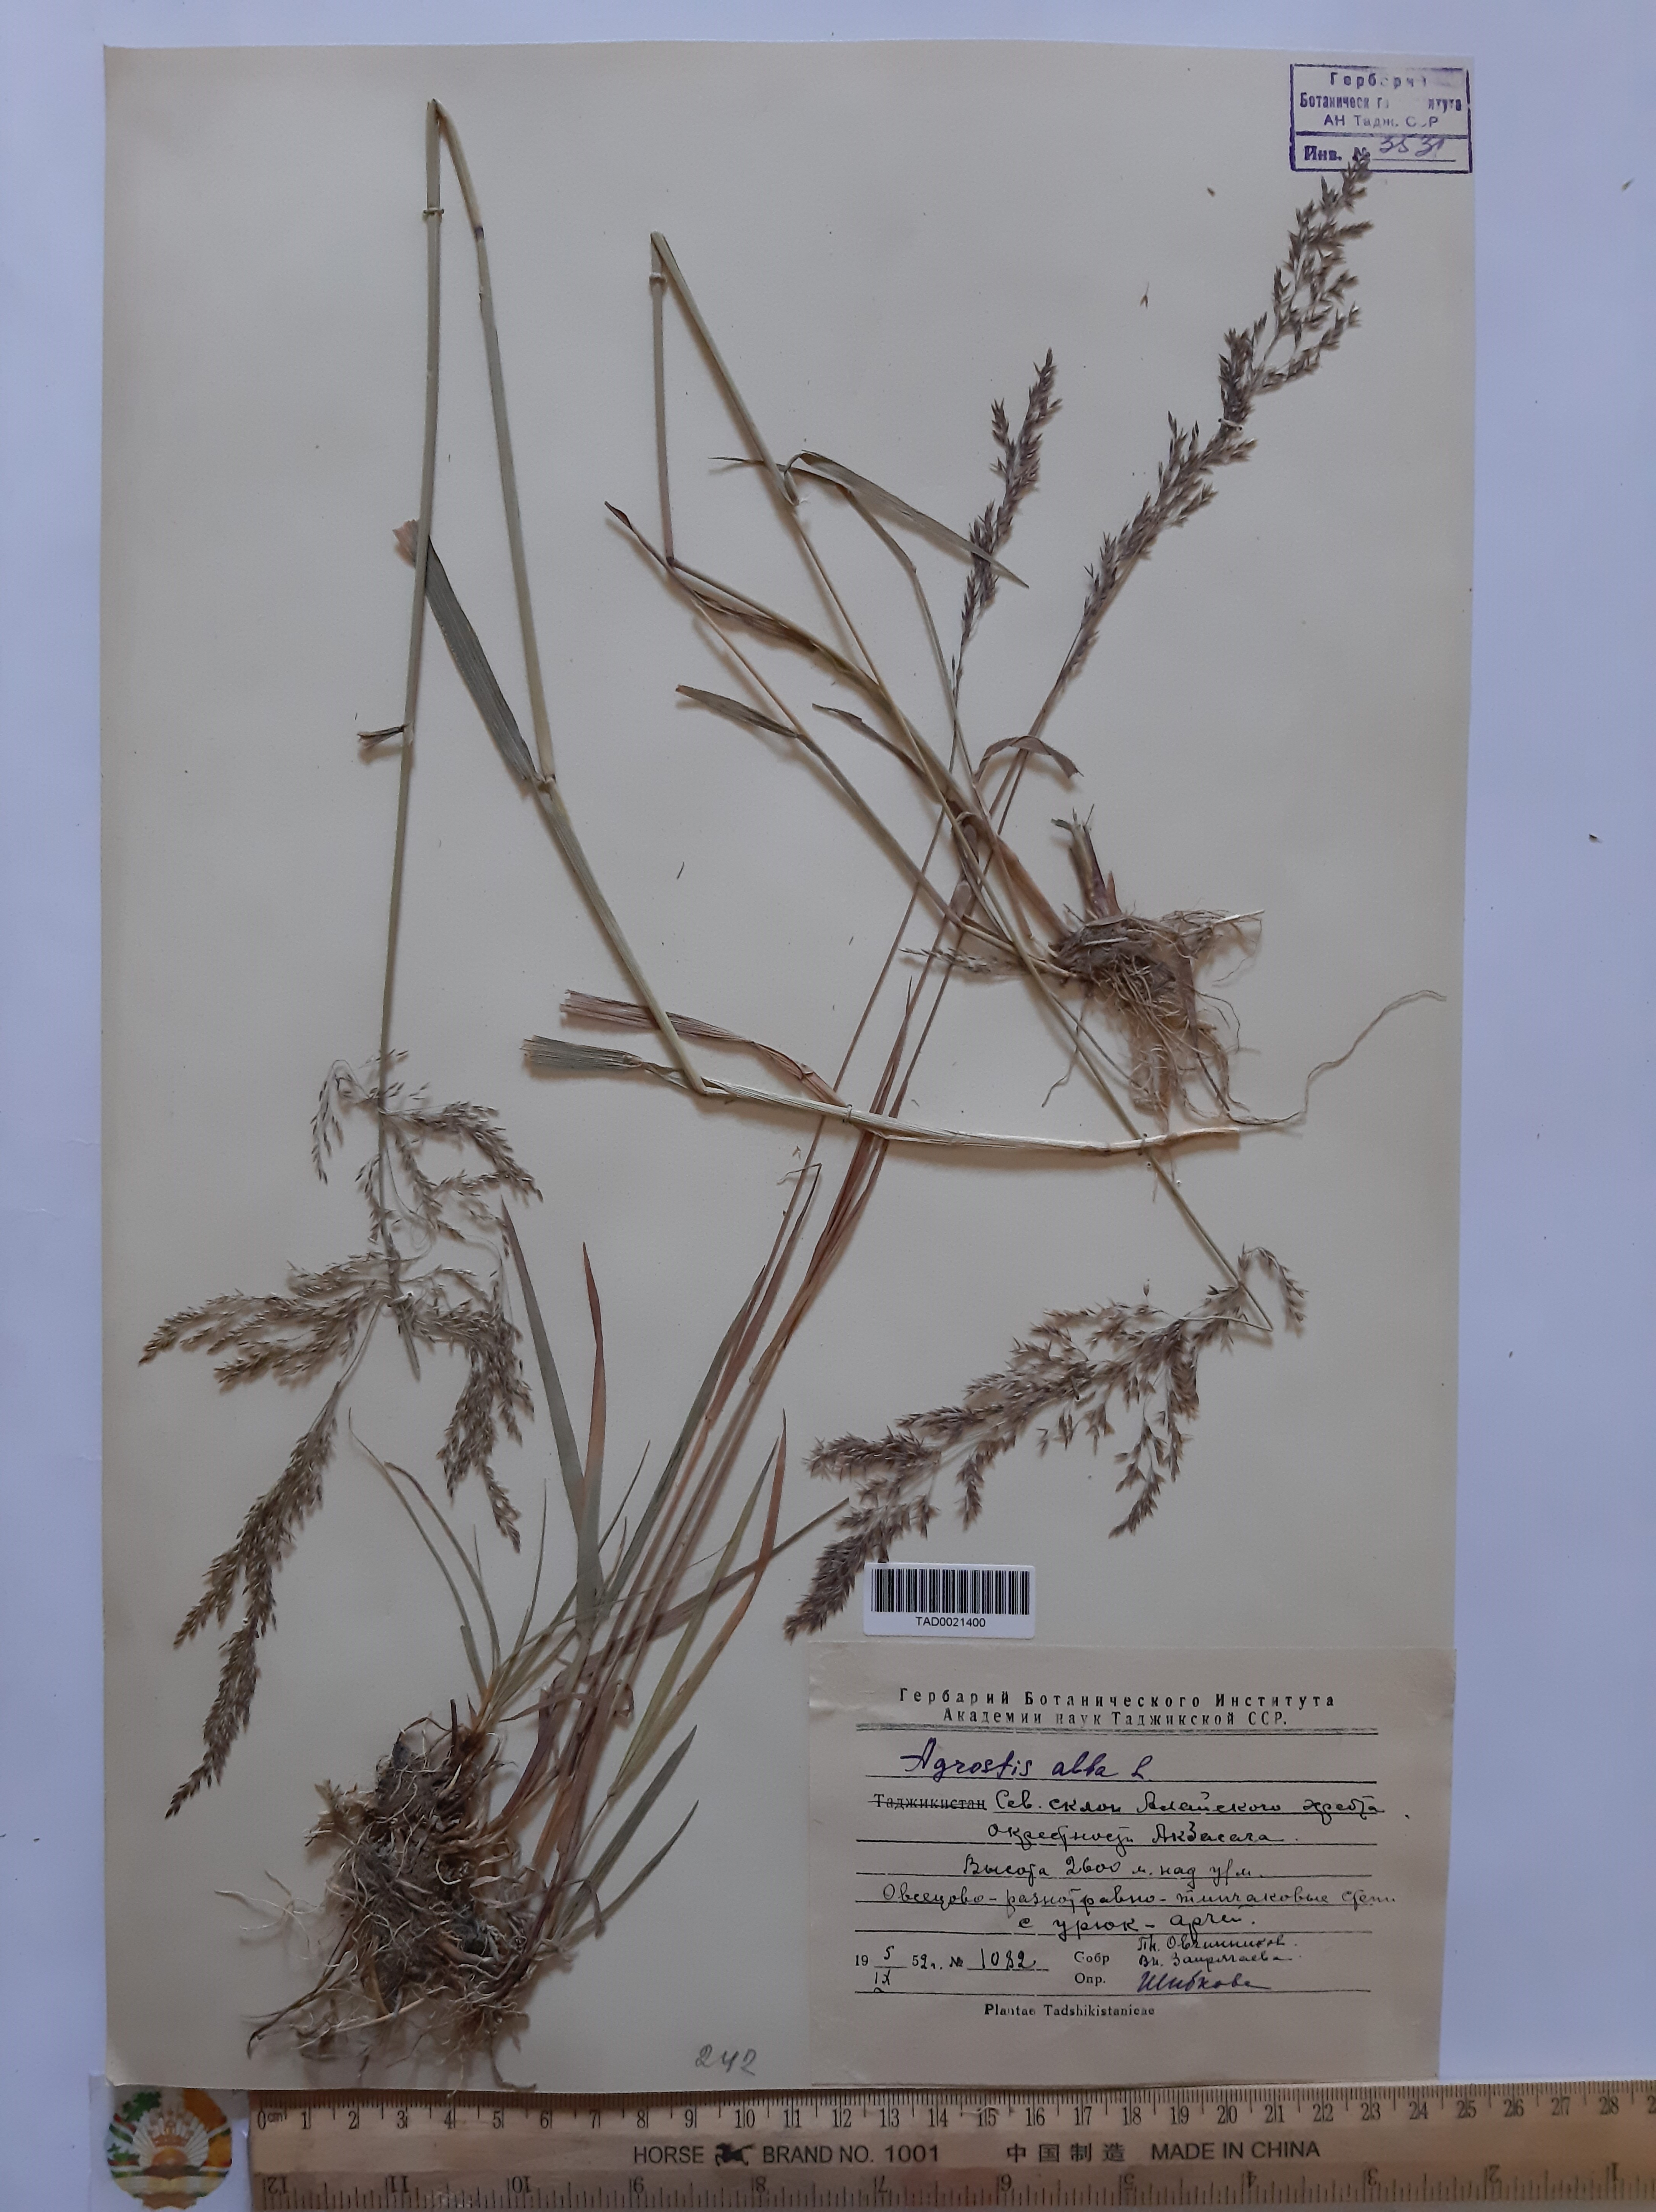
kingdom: Plantae
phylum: Tracheophyta
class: Liliopsida
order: Poales
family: Poaceae
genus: Poa
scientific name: Poa nemoralis
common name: Wood bluegrass
